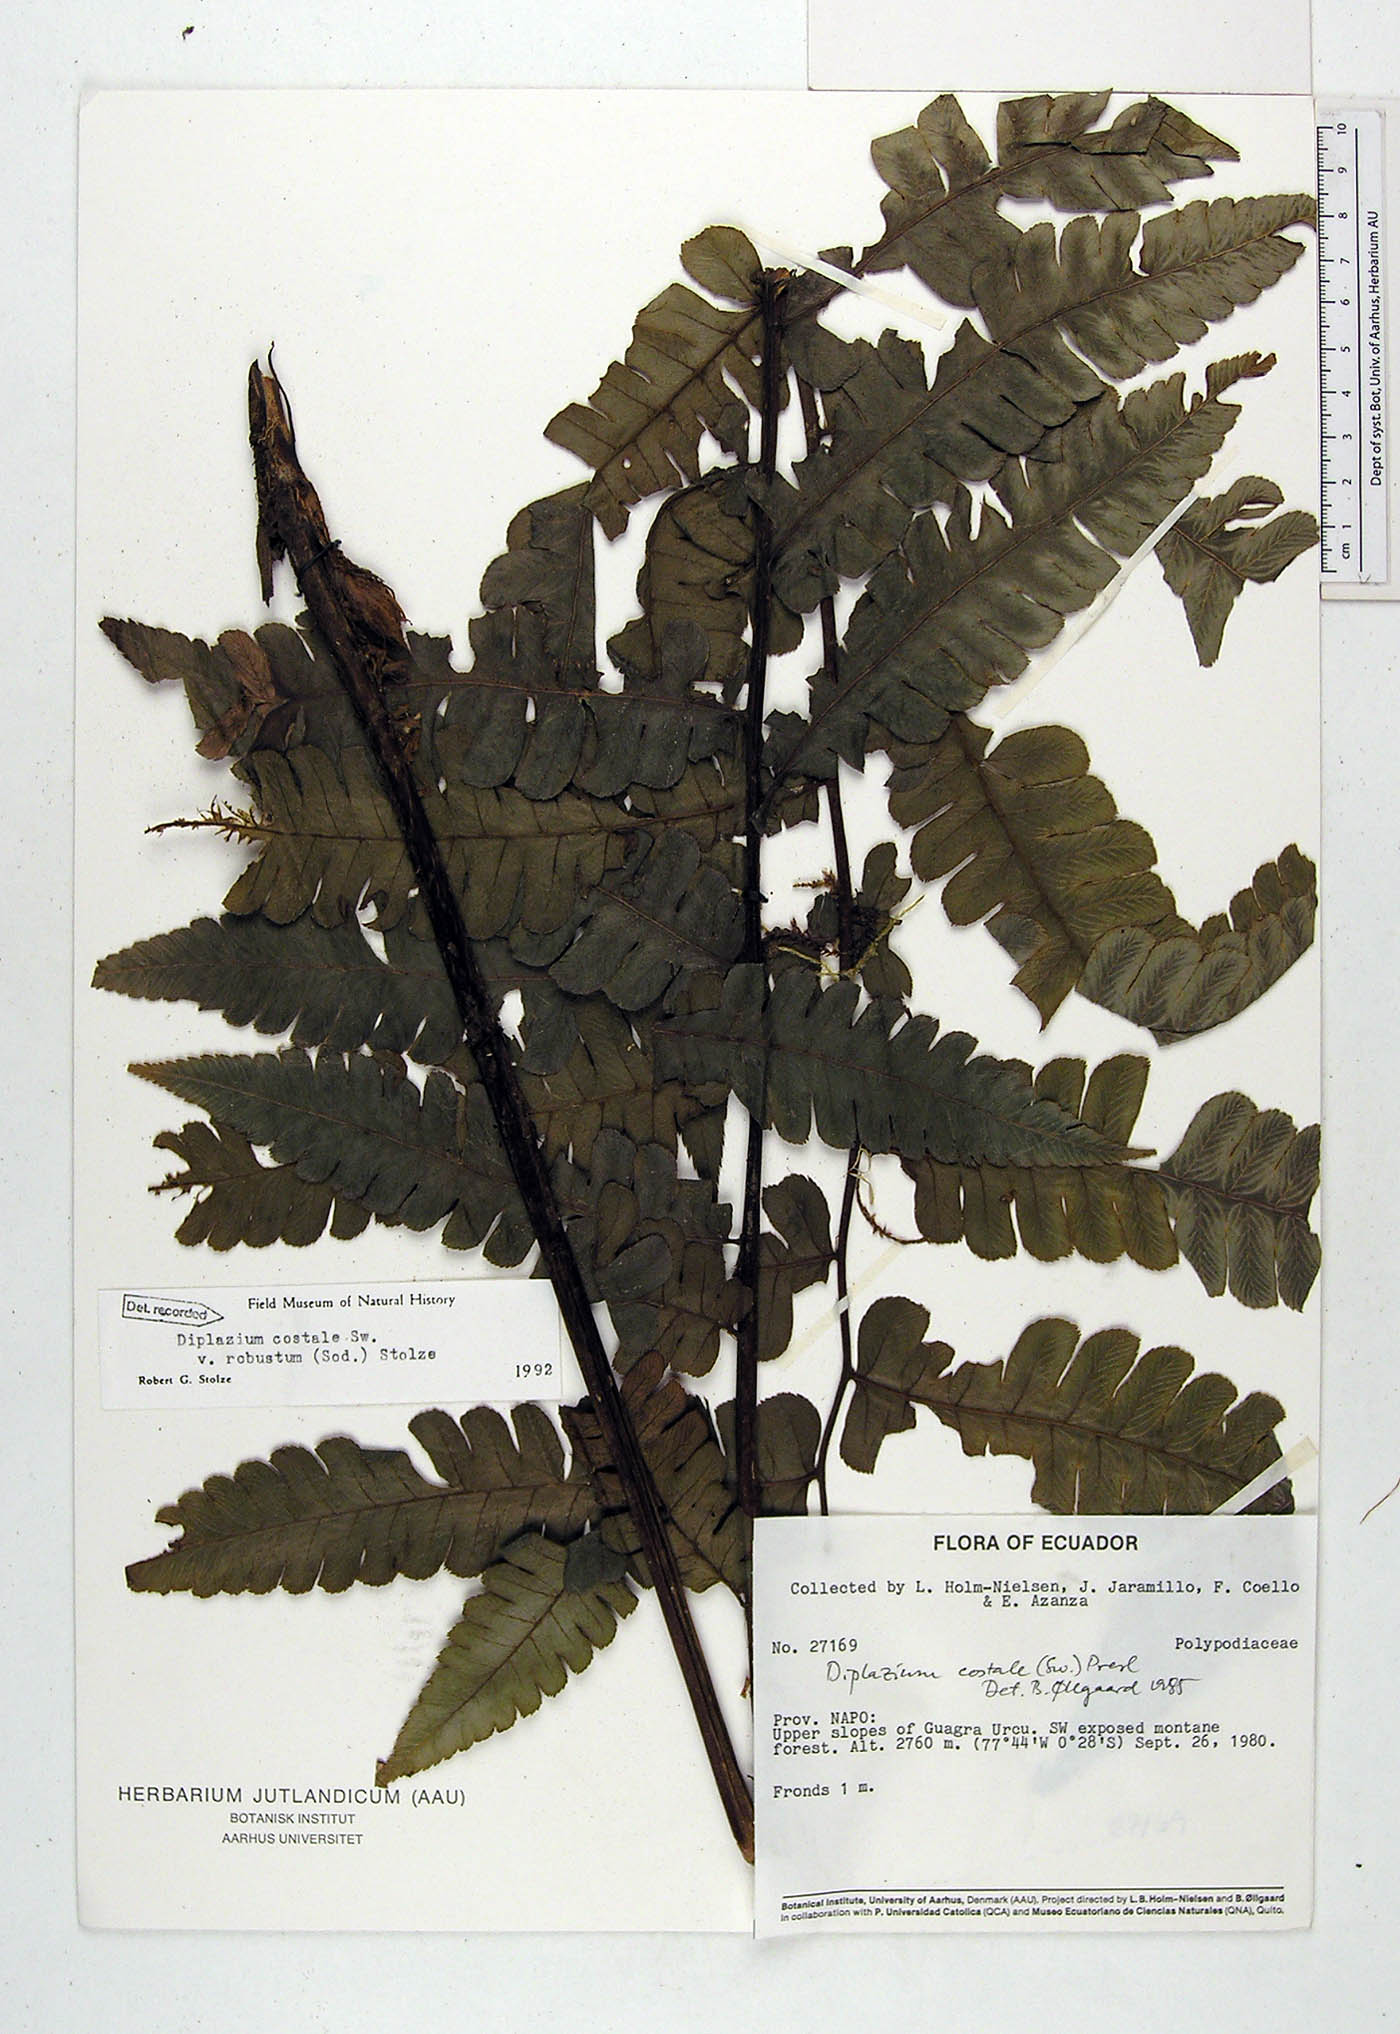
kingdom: Plantae
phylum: Tracheophyta
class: Polypodiopsida
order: Polypodiales
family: Athyriaceae
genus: Diplazium
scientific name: Diplazium costale
